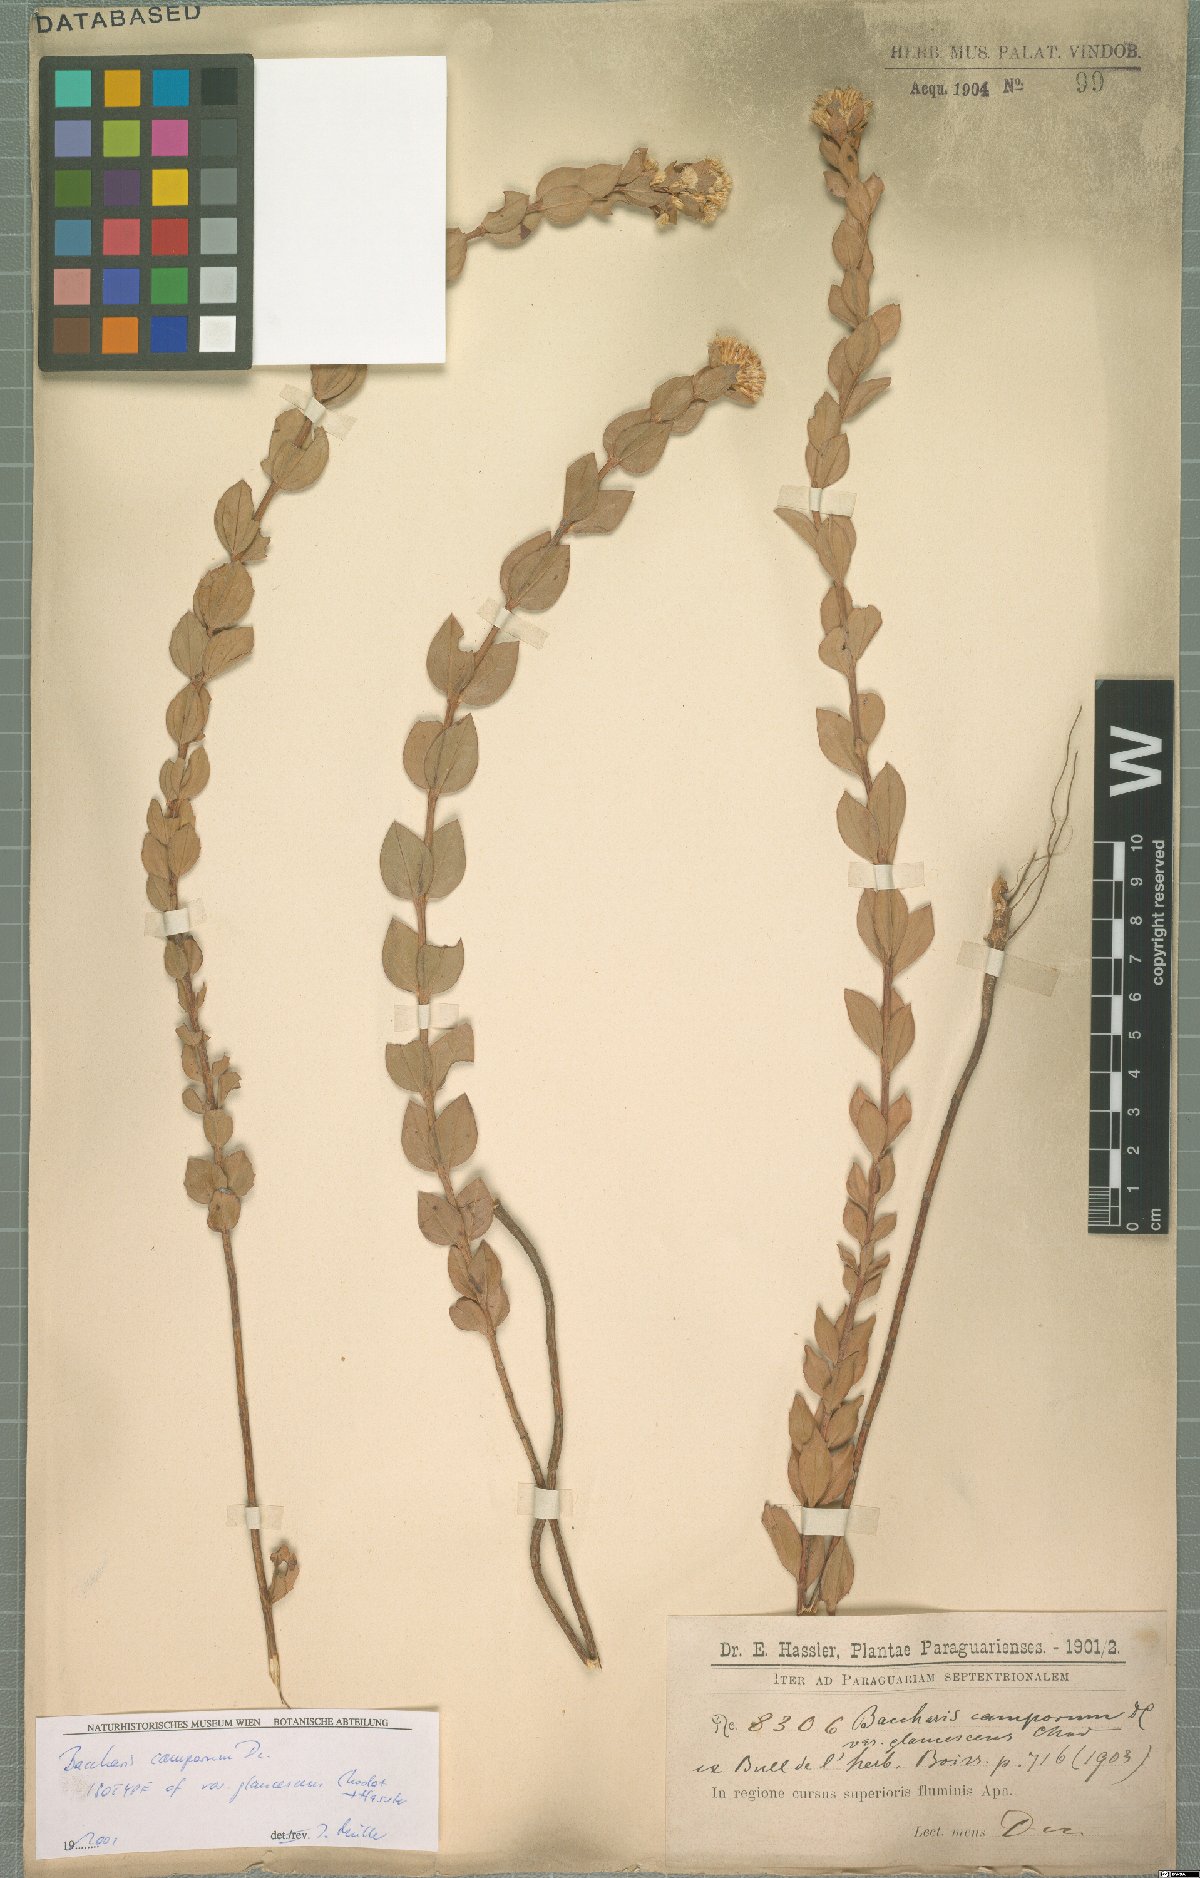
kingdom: Plantae
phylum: Tracheophyta
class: Magnoliopsida
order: Asterales
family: Asteraceae
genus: Baccharis
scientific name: Baccharis camporum
